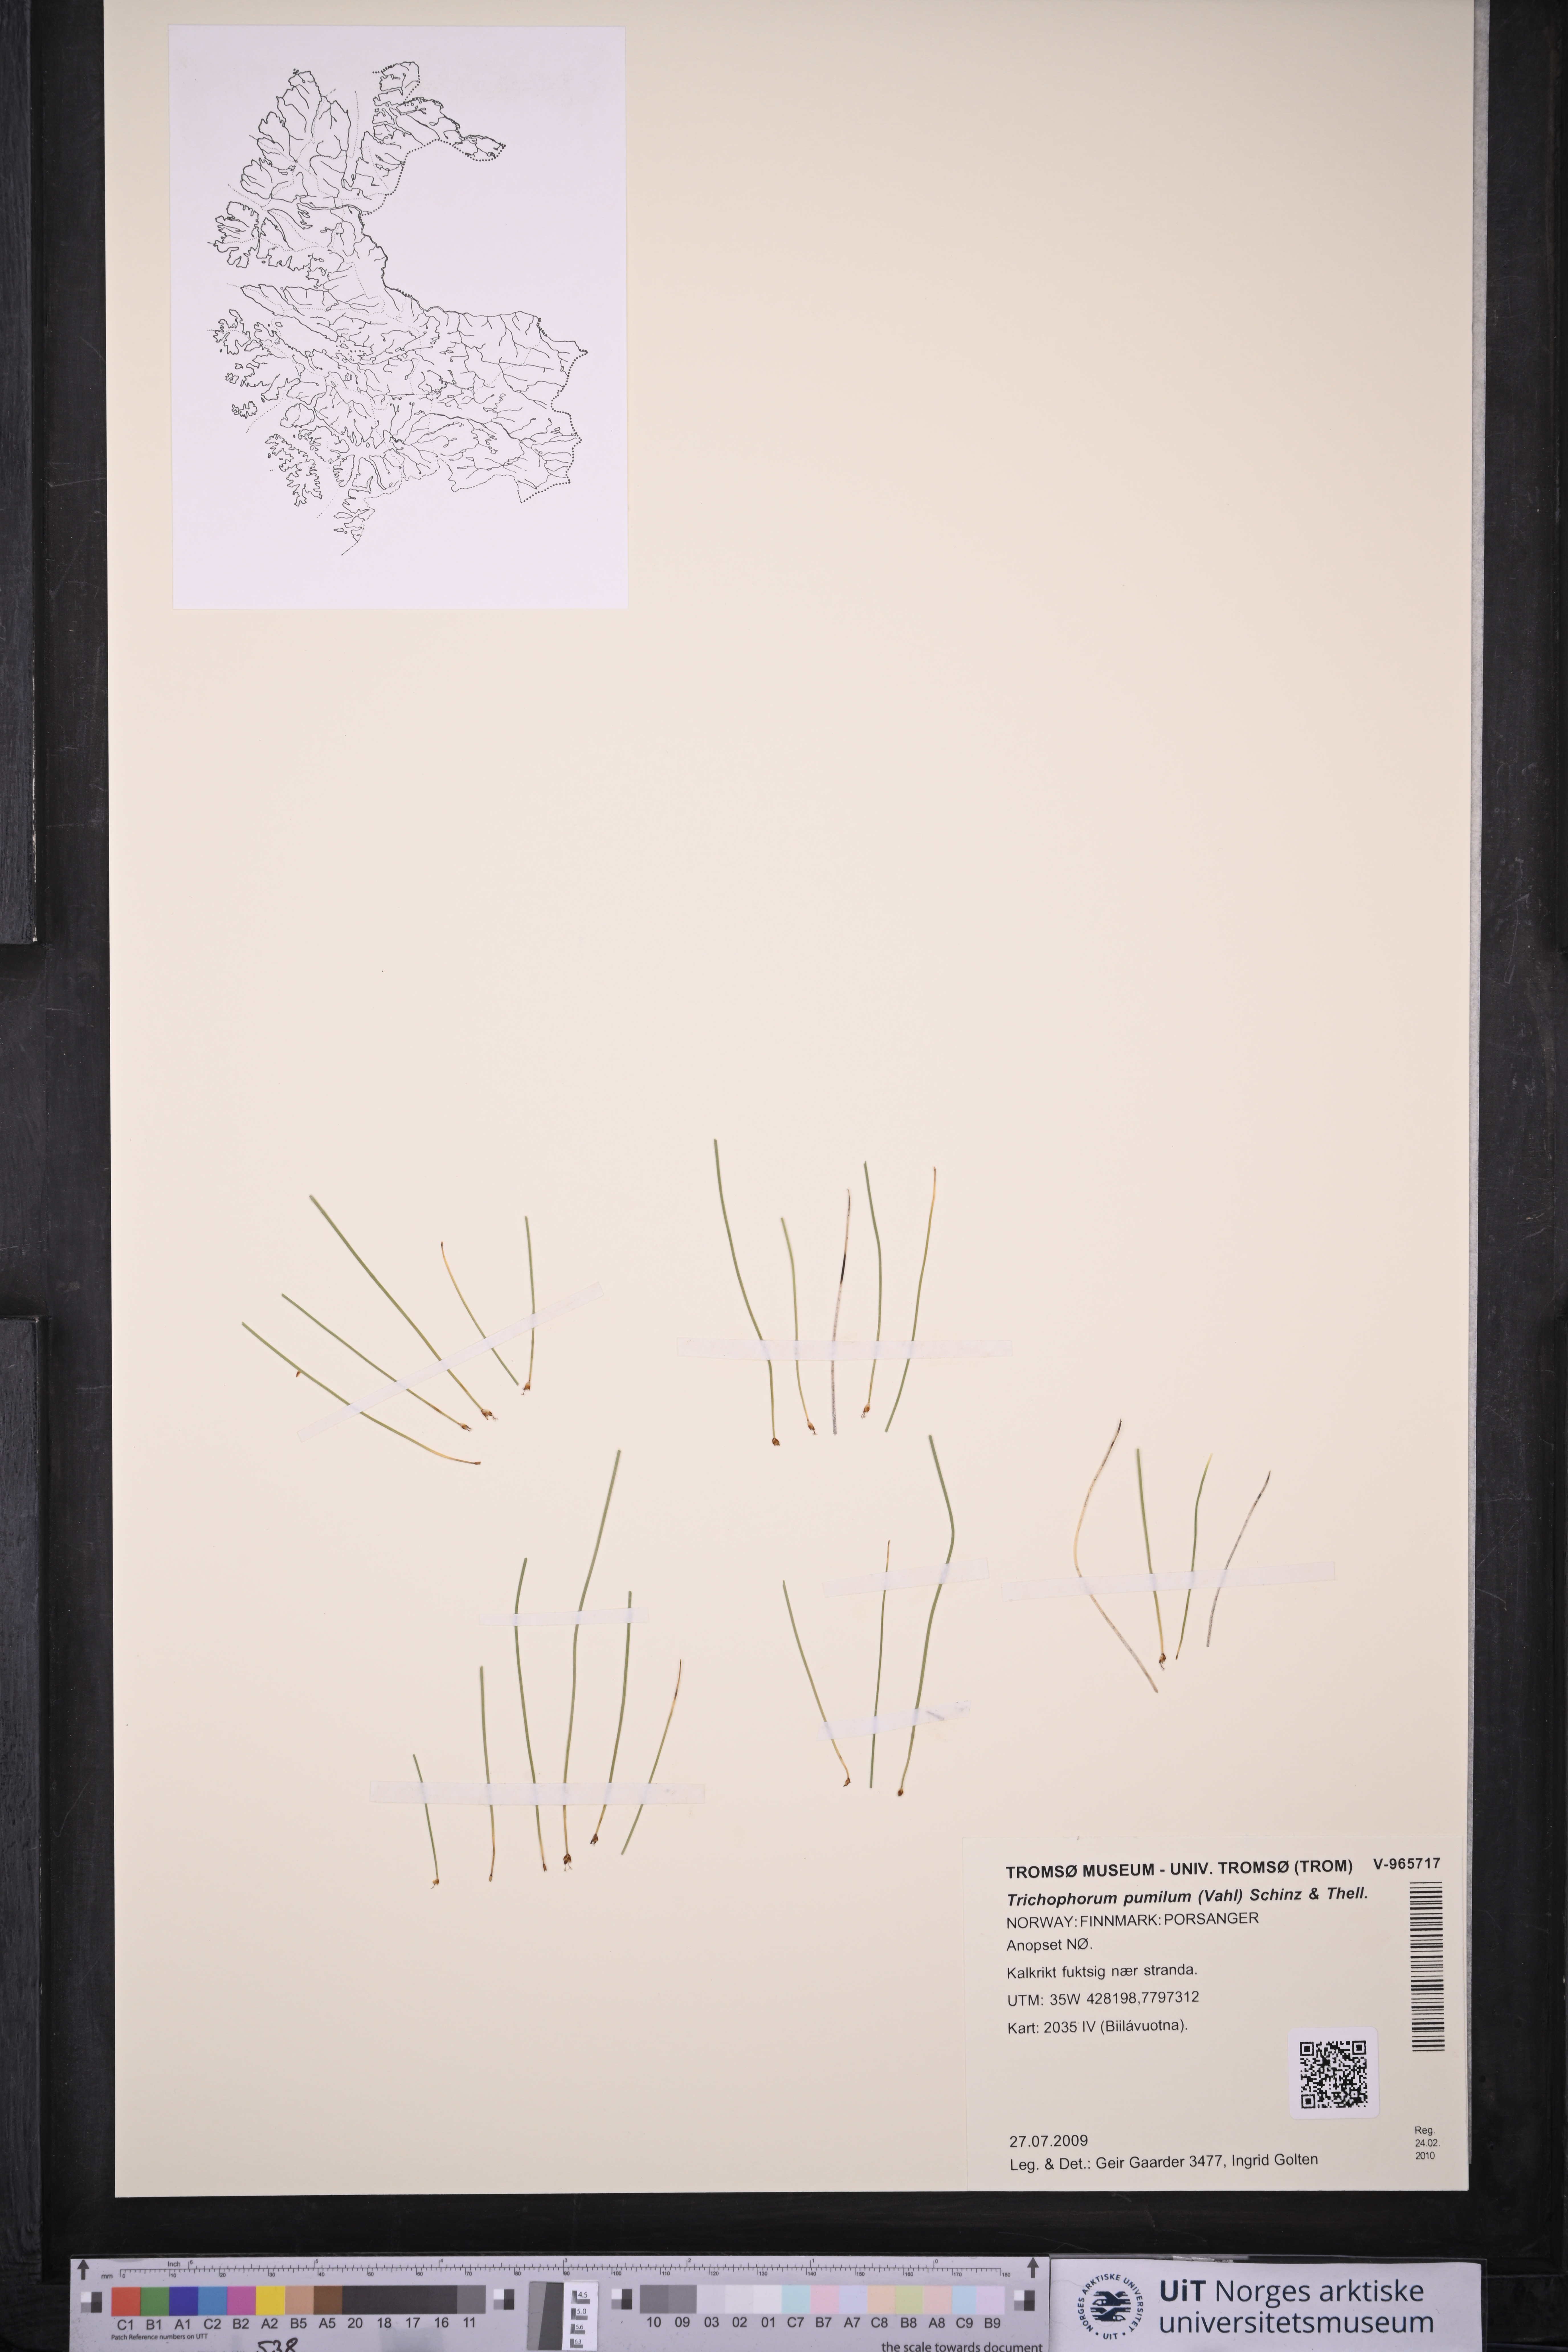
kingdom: Plantae
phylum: Tracheophyta
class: Liliopsida
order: Poales
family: Cyperaceae
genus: Trichophorum
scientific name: Trichophorum pumilum
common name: Rolland's bulrush
